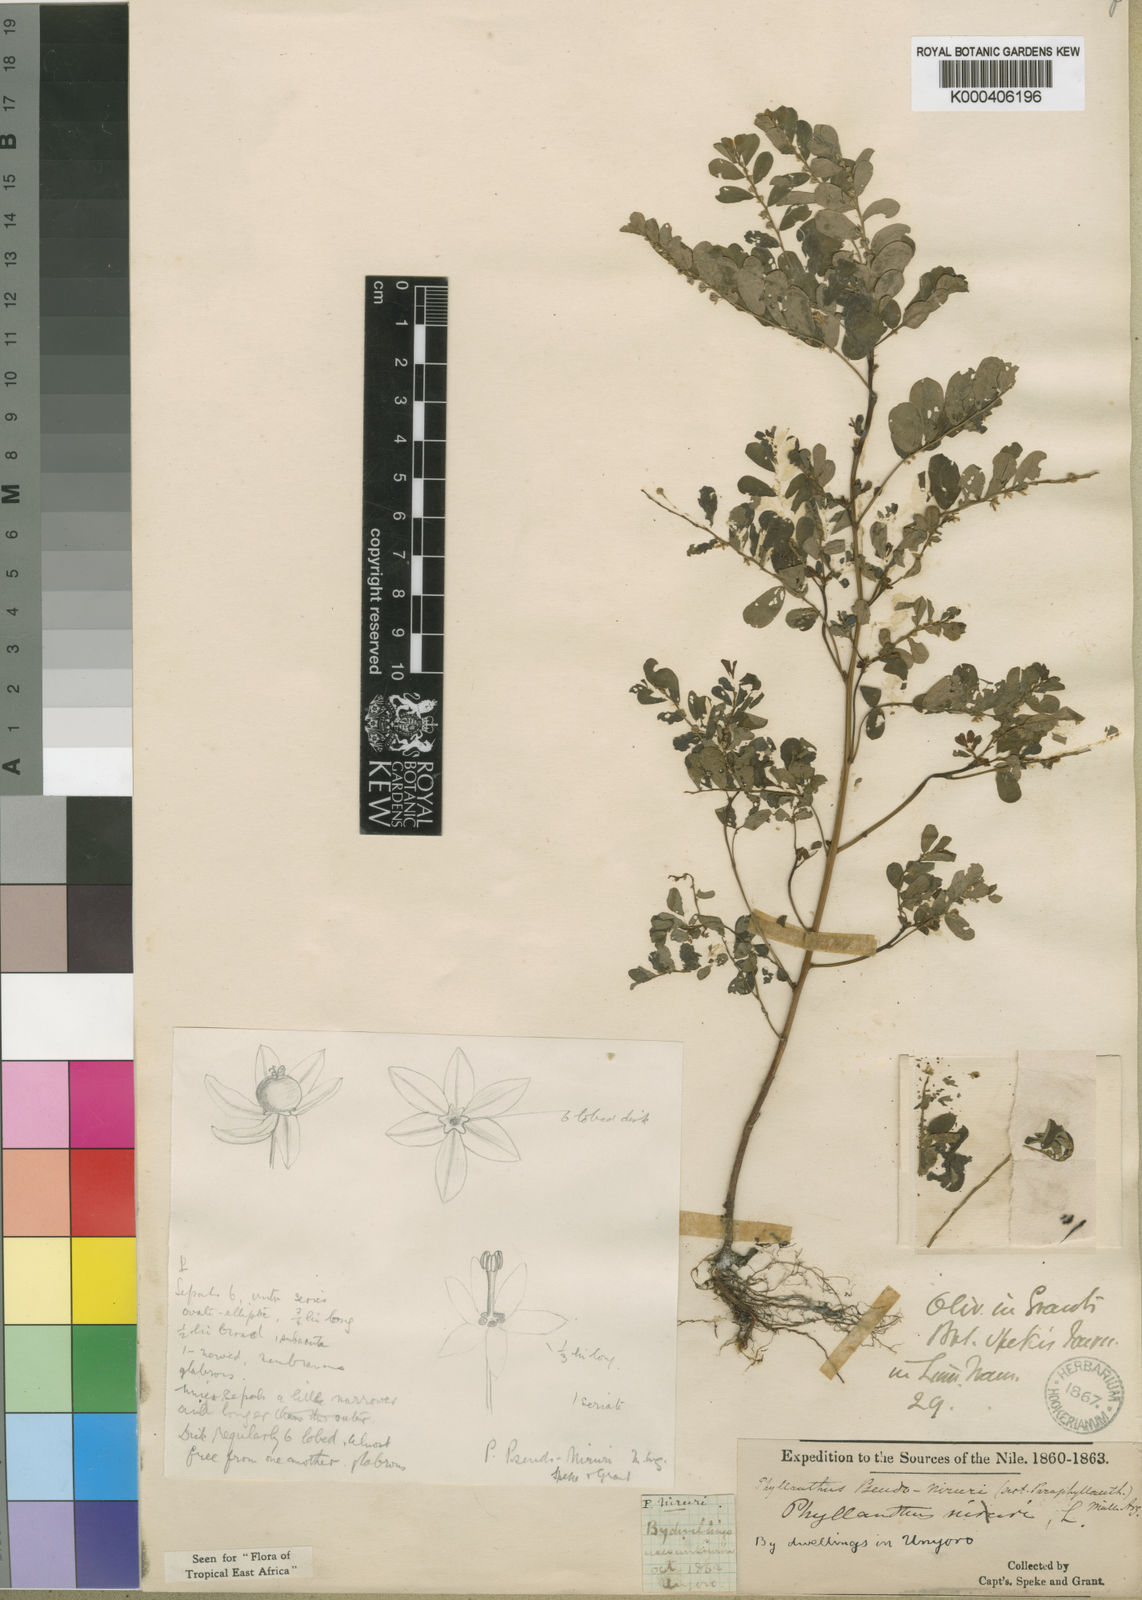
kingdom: Plantae
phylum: Tracheophyta
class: Magnoliopsida
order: Malpighiales
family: Phyllanthaceae
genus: Phyllanthus
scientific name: Phyllanthus
